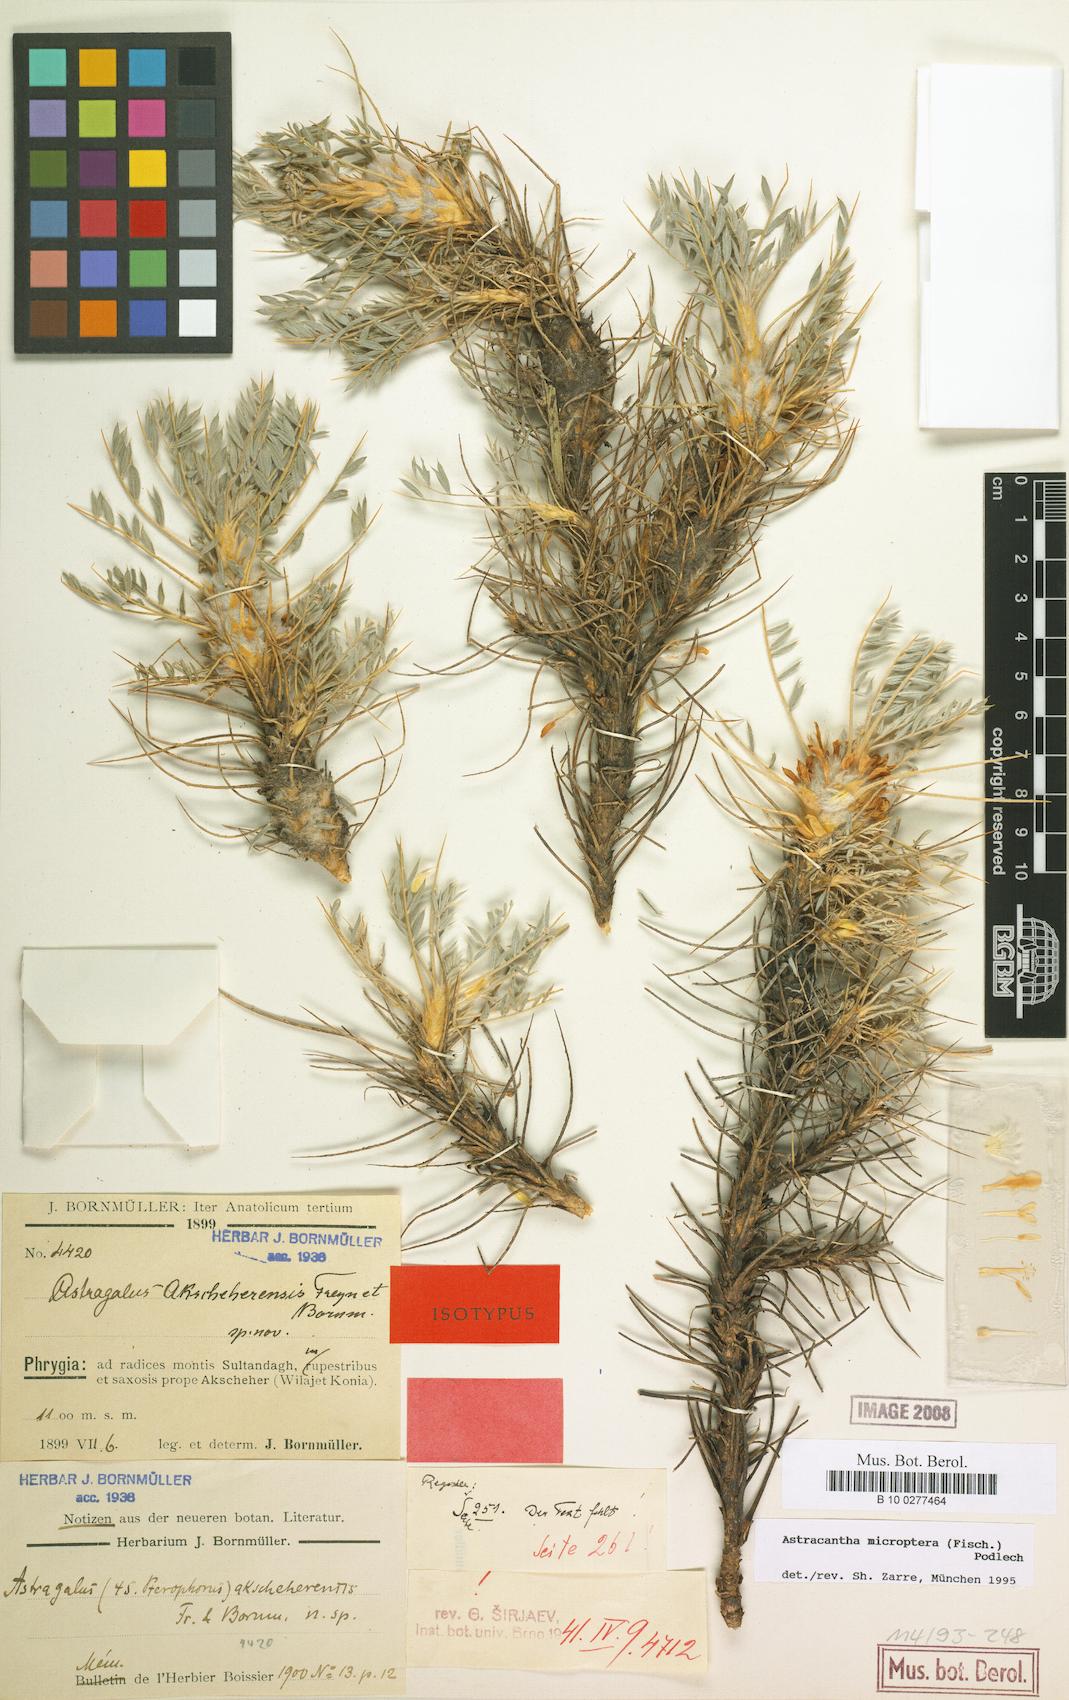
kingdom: Plantae
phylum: Tracheophyta
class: Magnoliopsida
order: Fabales
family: Fabaceae
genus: Astragalus
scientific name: Astragalus micropterus
